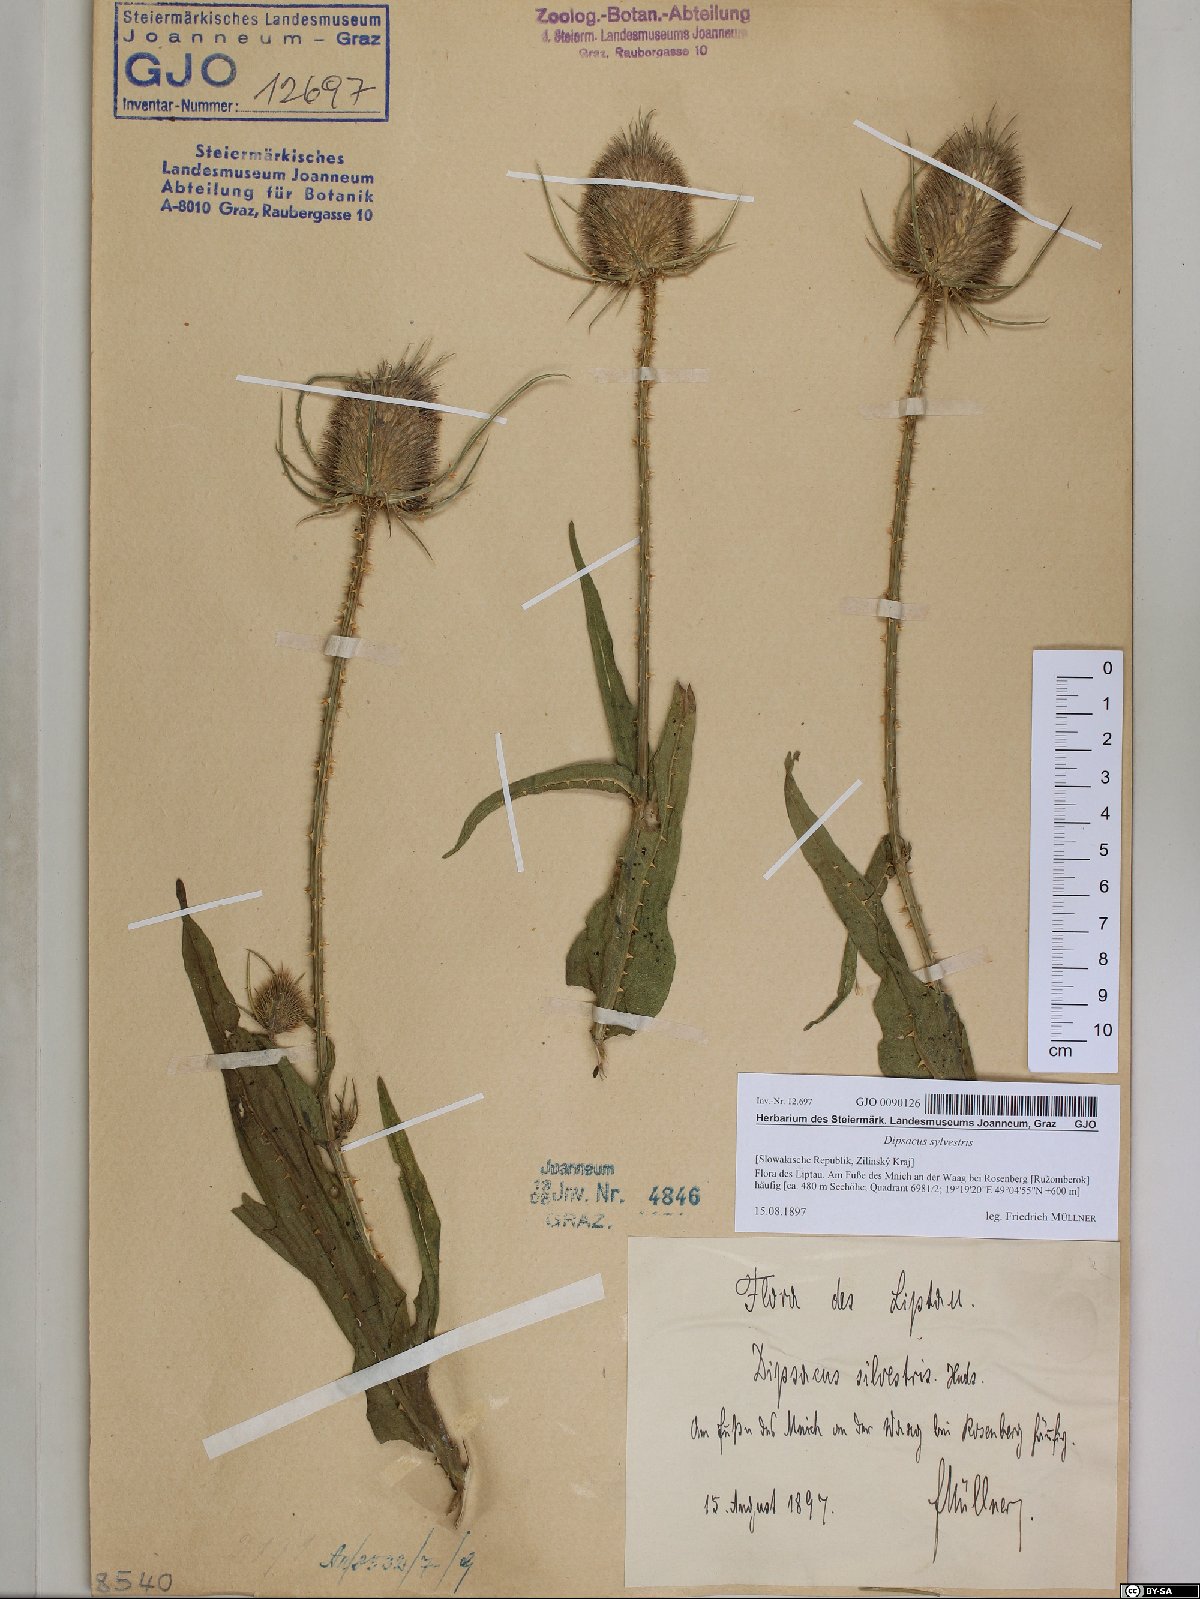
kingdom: Plantae
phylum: Tracheophyta
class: Magnoliopsida
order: Dipsacales
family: Caprifoliaceae
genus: Dipsacus
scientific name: Dipsacus fullonum
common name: Teasel
